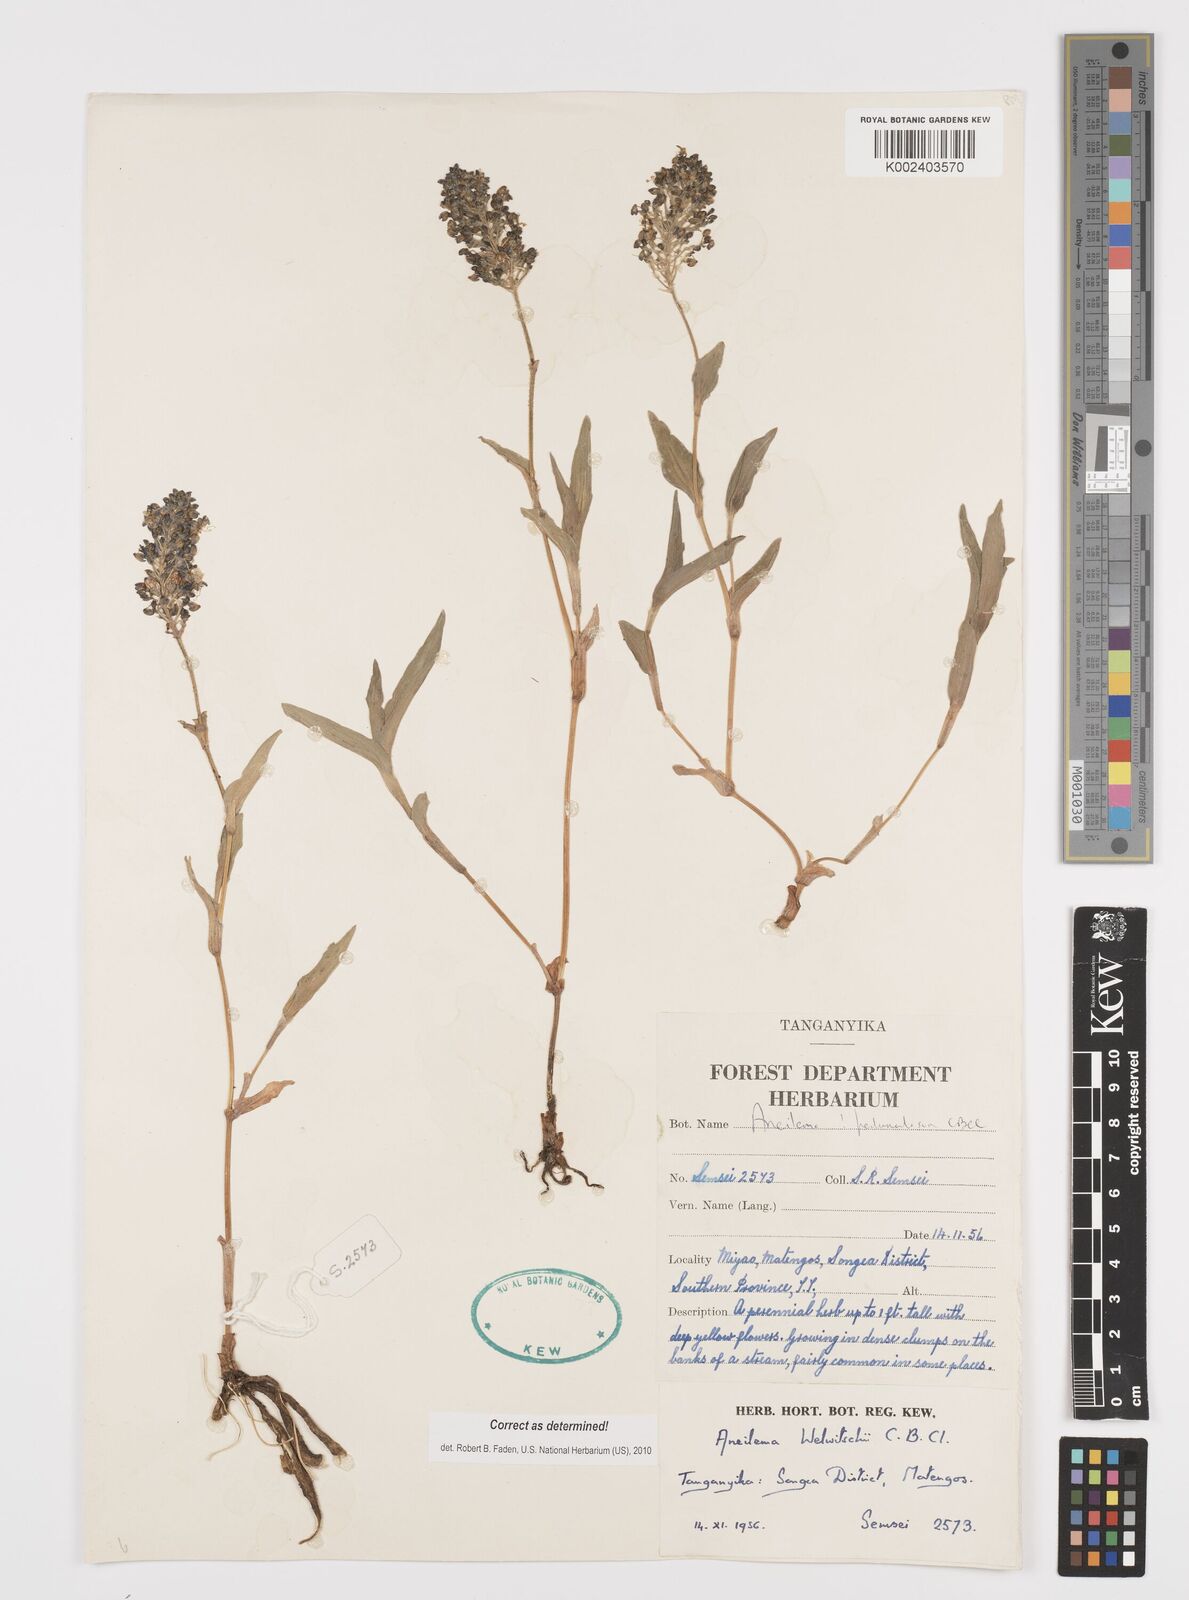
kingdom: Plantae
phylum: Tracheophyta
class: Liliopsida
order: Commelinales
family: Commelinaceae
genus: Aneilema
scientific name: Aneilema welwitschii
